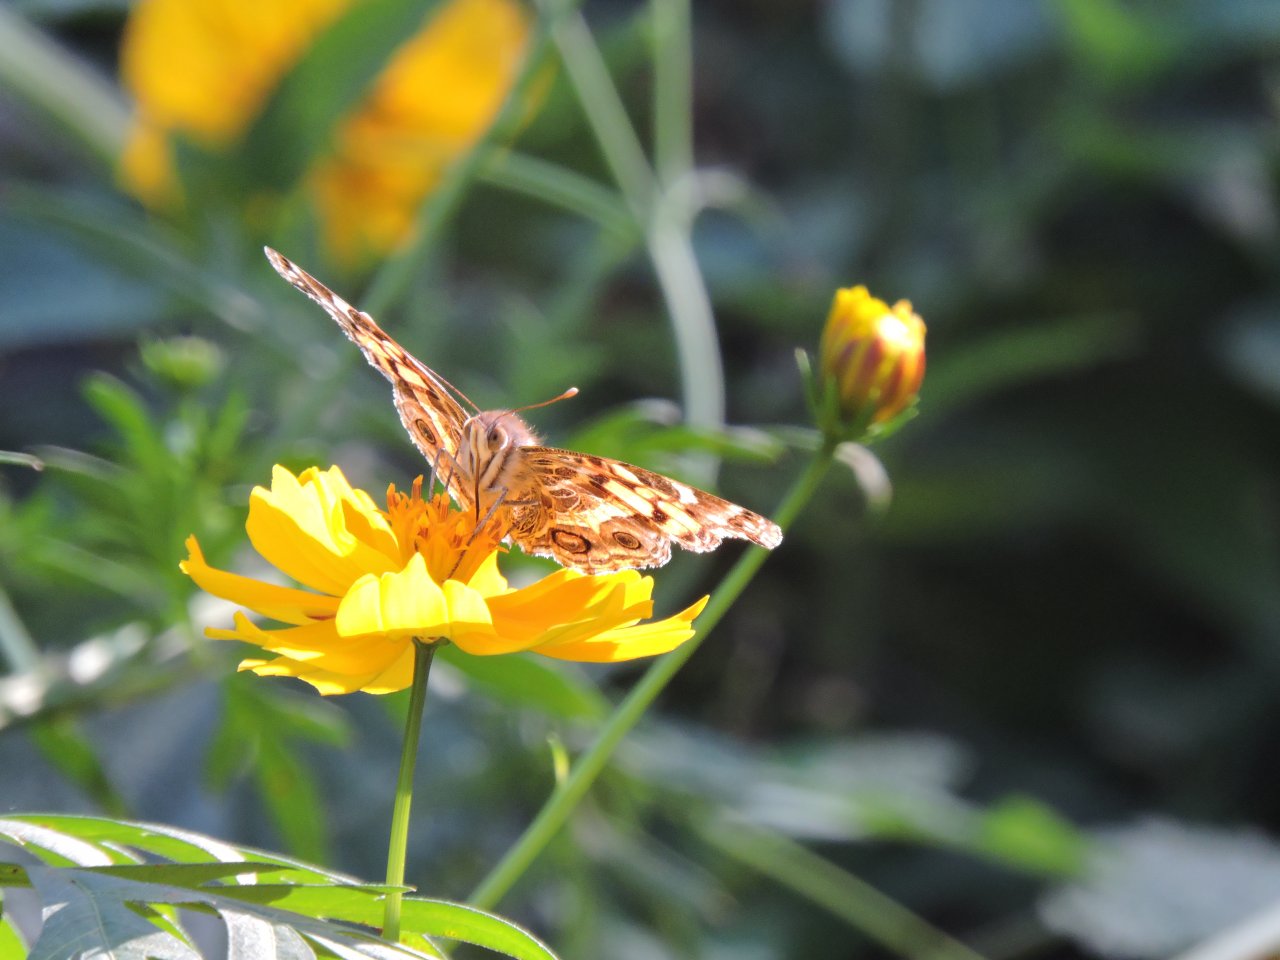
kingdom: Animalia
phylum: Arthropoda
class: Insecta
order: Lepidoptera
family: Nymphalidae
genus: Vanessa
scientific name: Vanessa virginiensis
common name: American Lady
